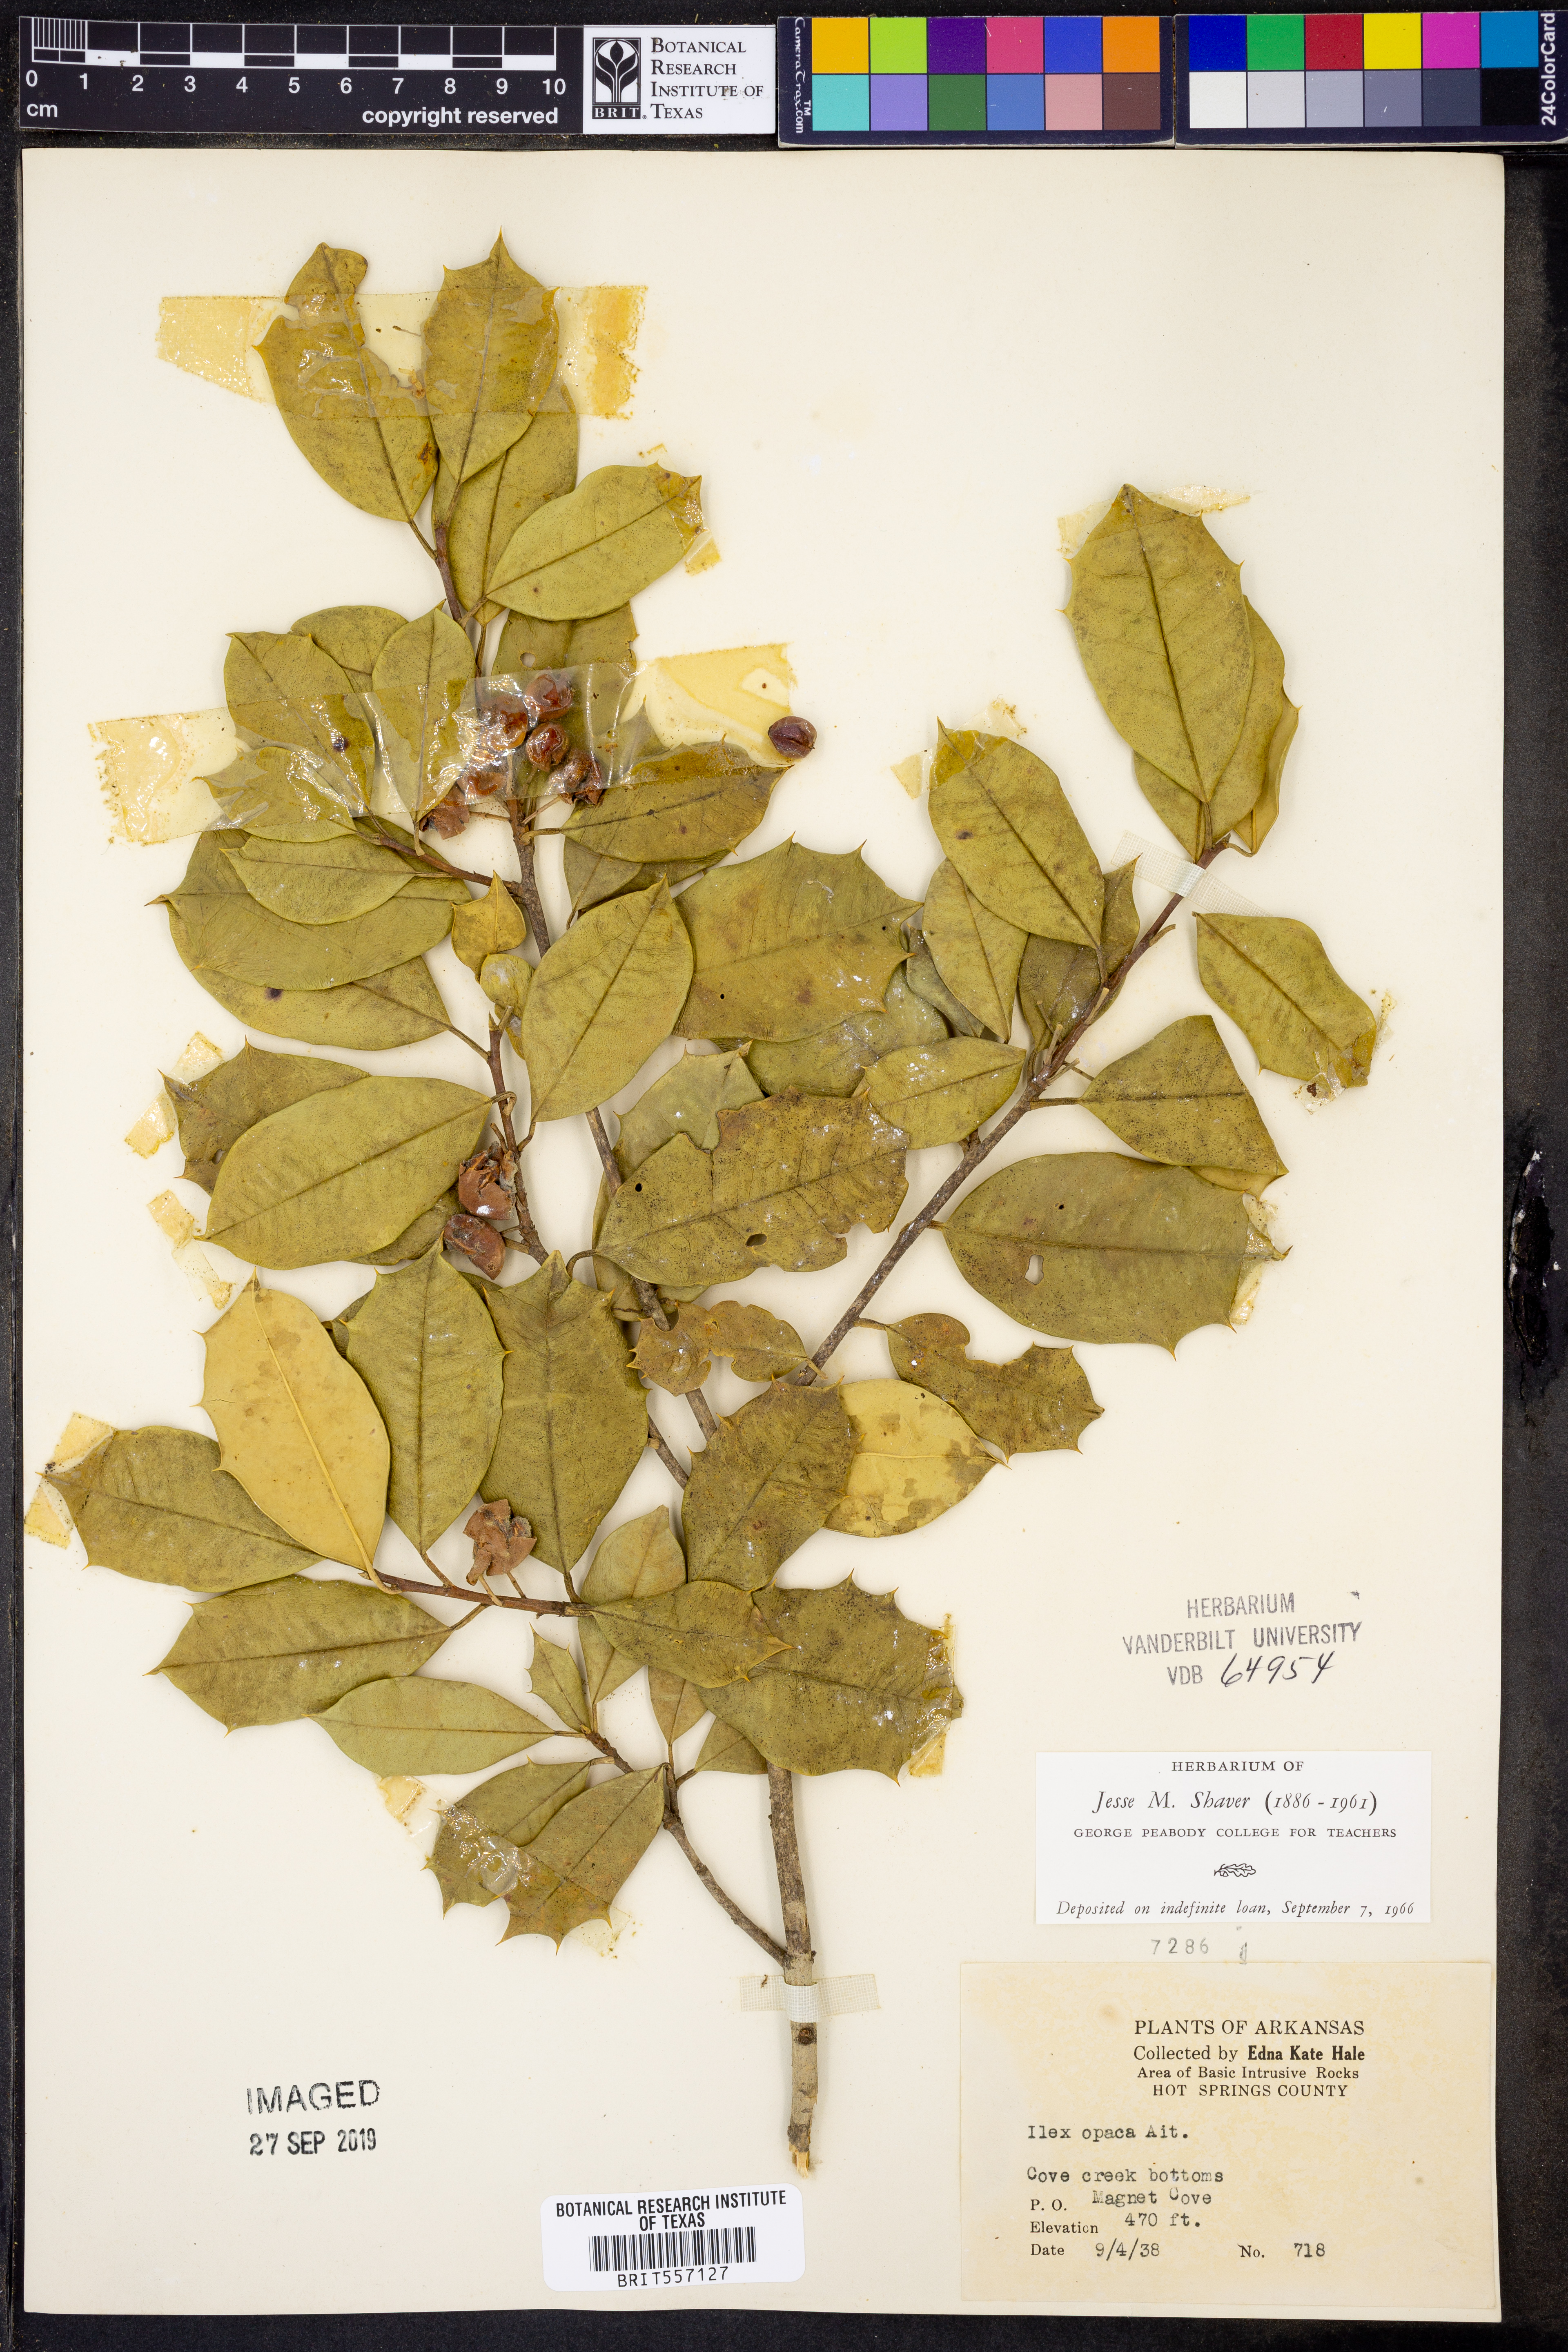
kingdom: Plantae
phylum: Tracheophyta
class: Magnoliopsida
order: Aquifoliales
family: Aquifoliaceae
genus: Ilex
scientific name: Ilex opaca
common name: American holly
